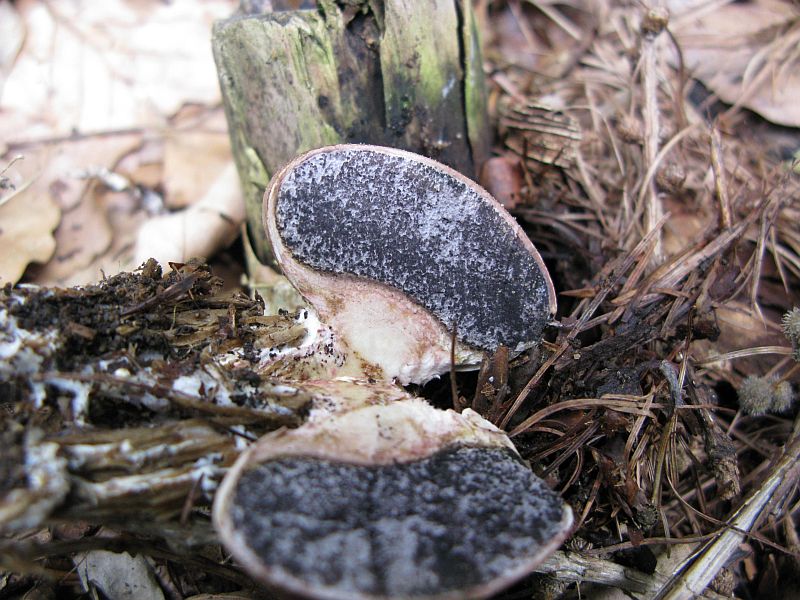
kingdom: Fungi
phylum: Basidiomycota
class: Agaricomycetes
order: Boletales
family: Sclerodermataceae
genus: Scleroderma
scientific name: Scleroderma verrucosum
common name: stilket bruskbold
